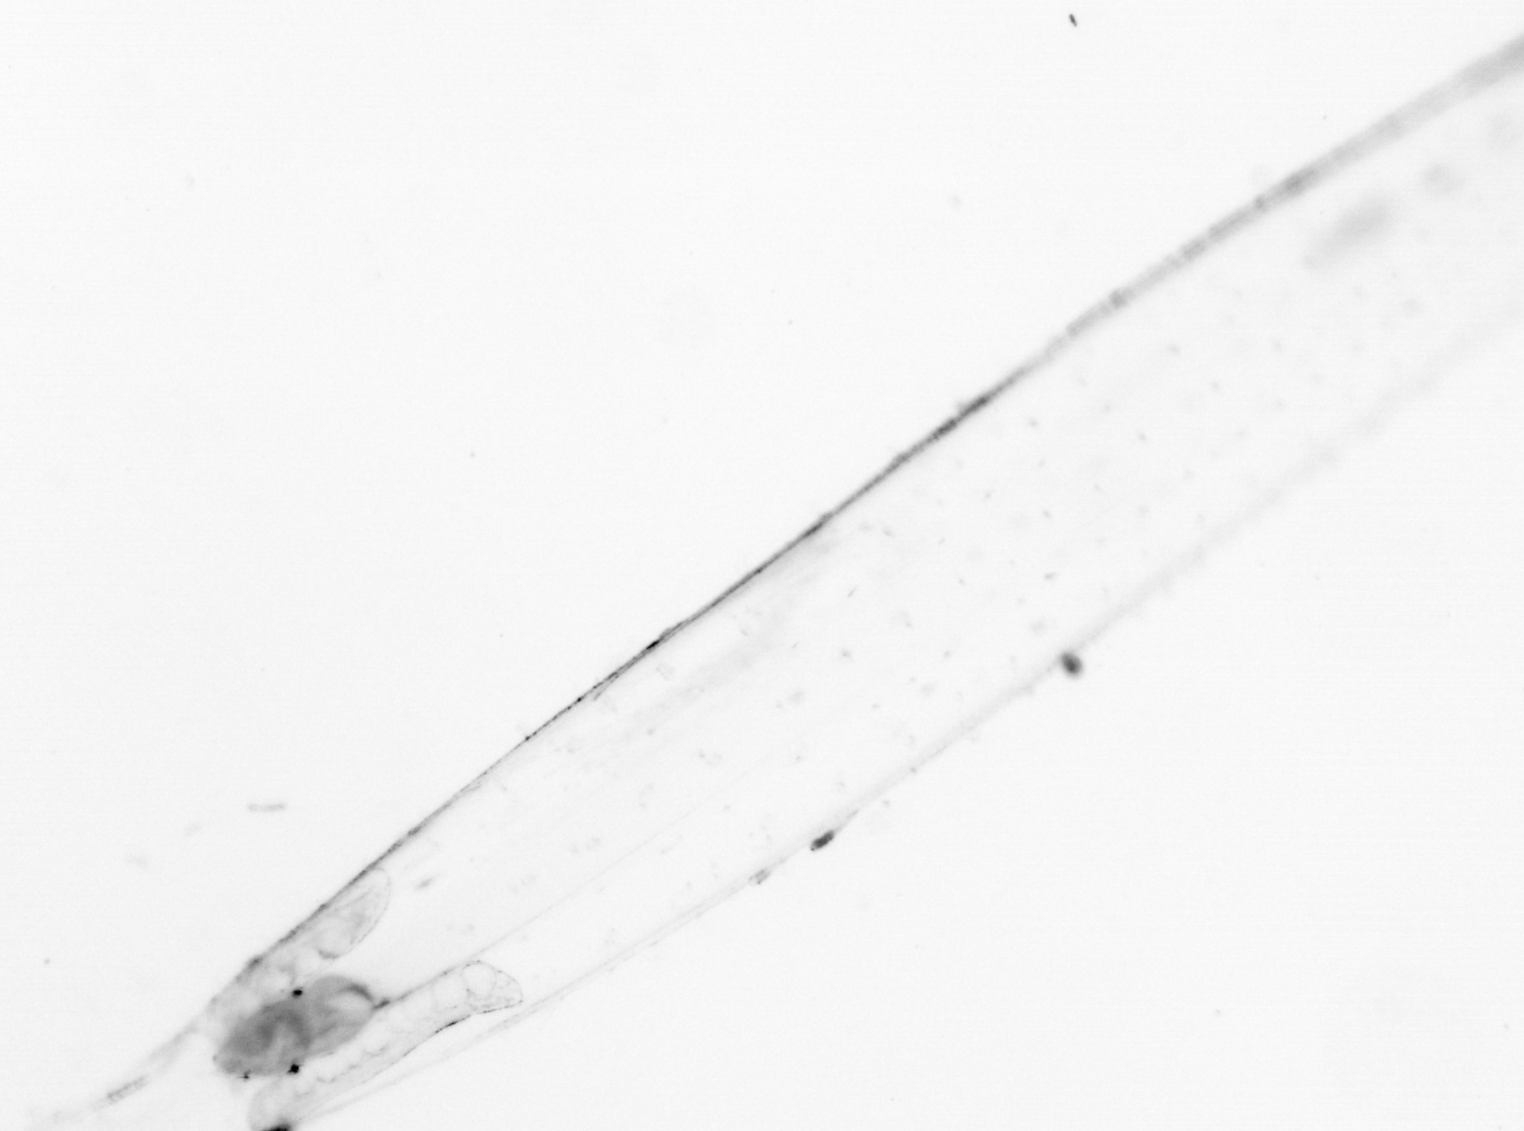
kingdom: Animalia
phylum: Chaetognatha
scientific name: Chaetognatha
